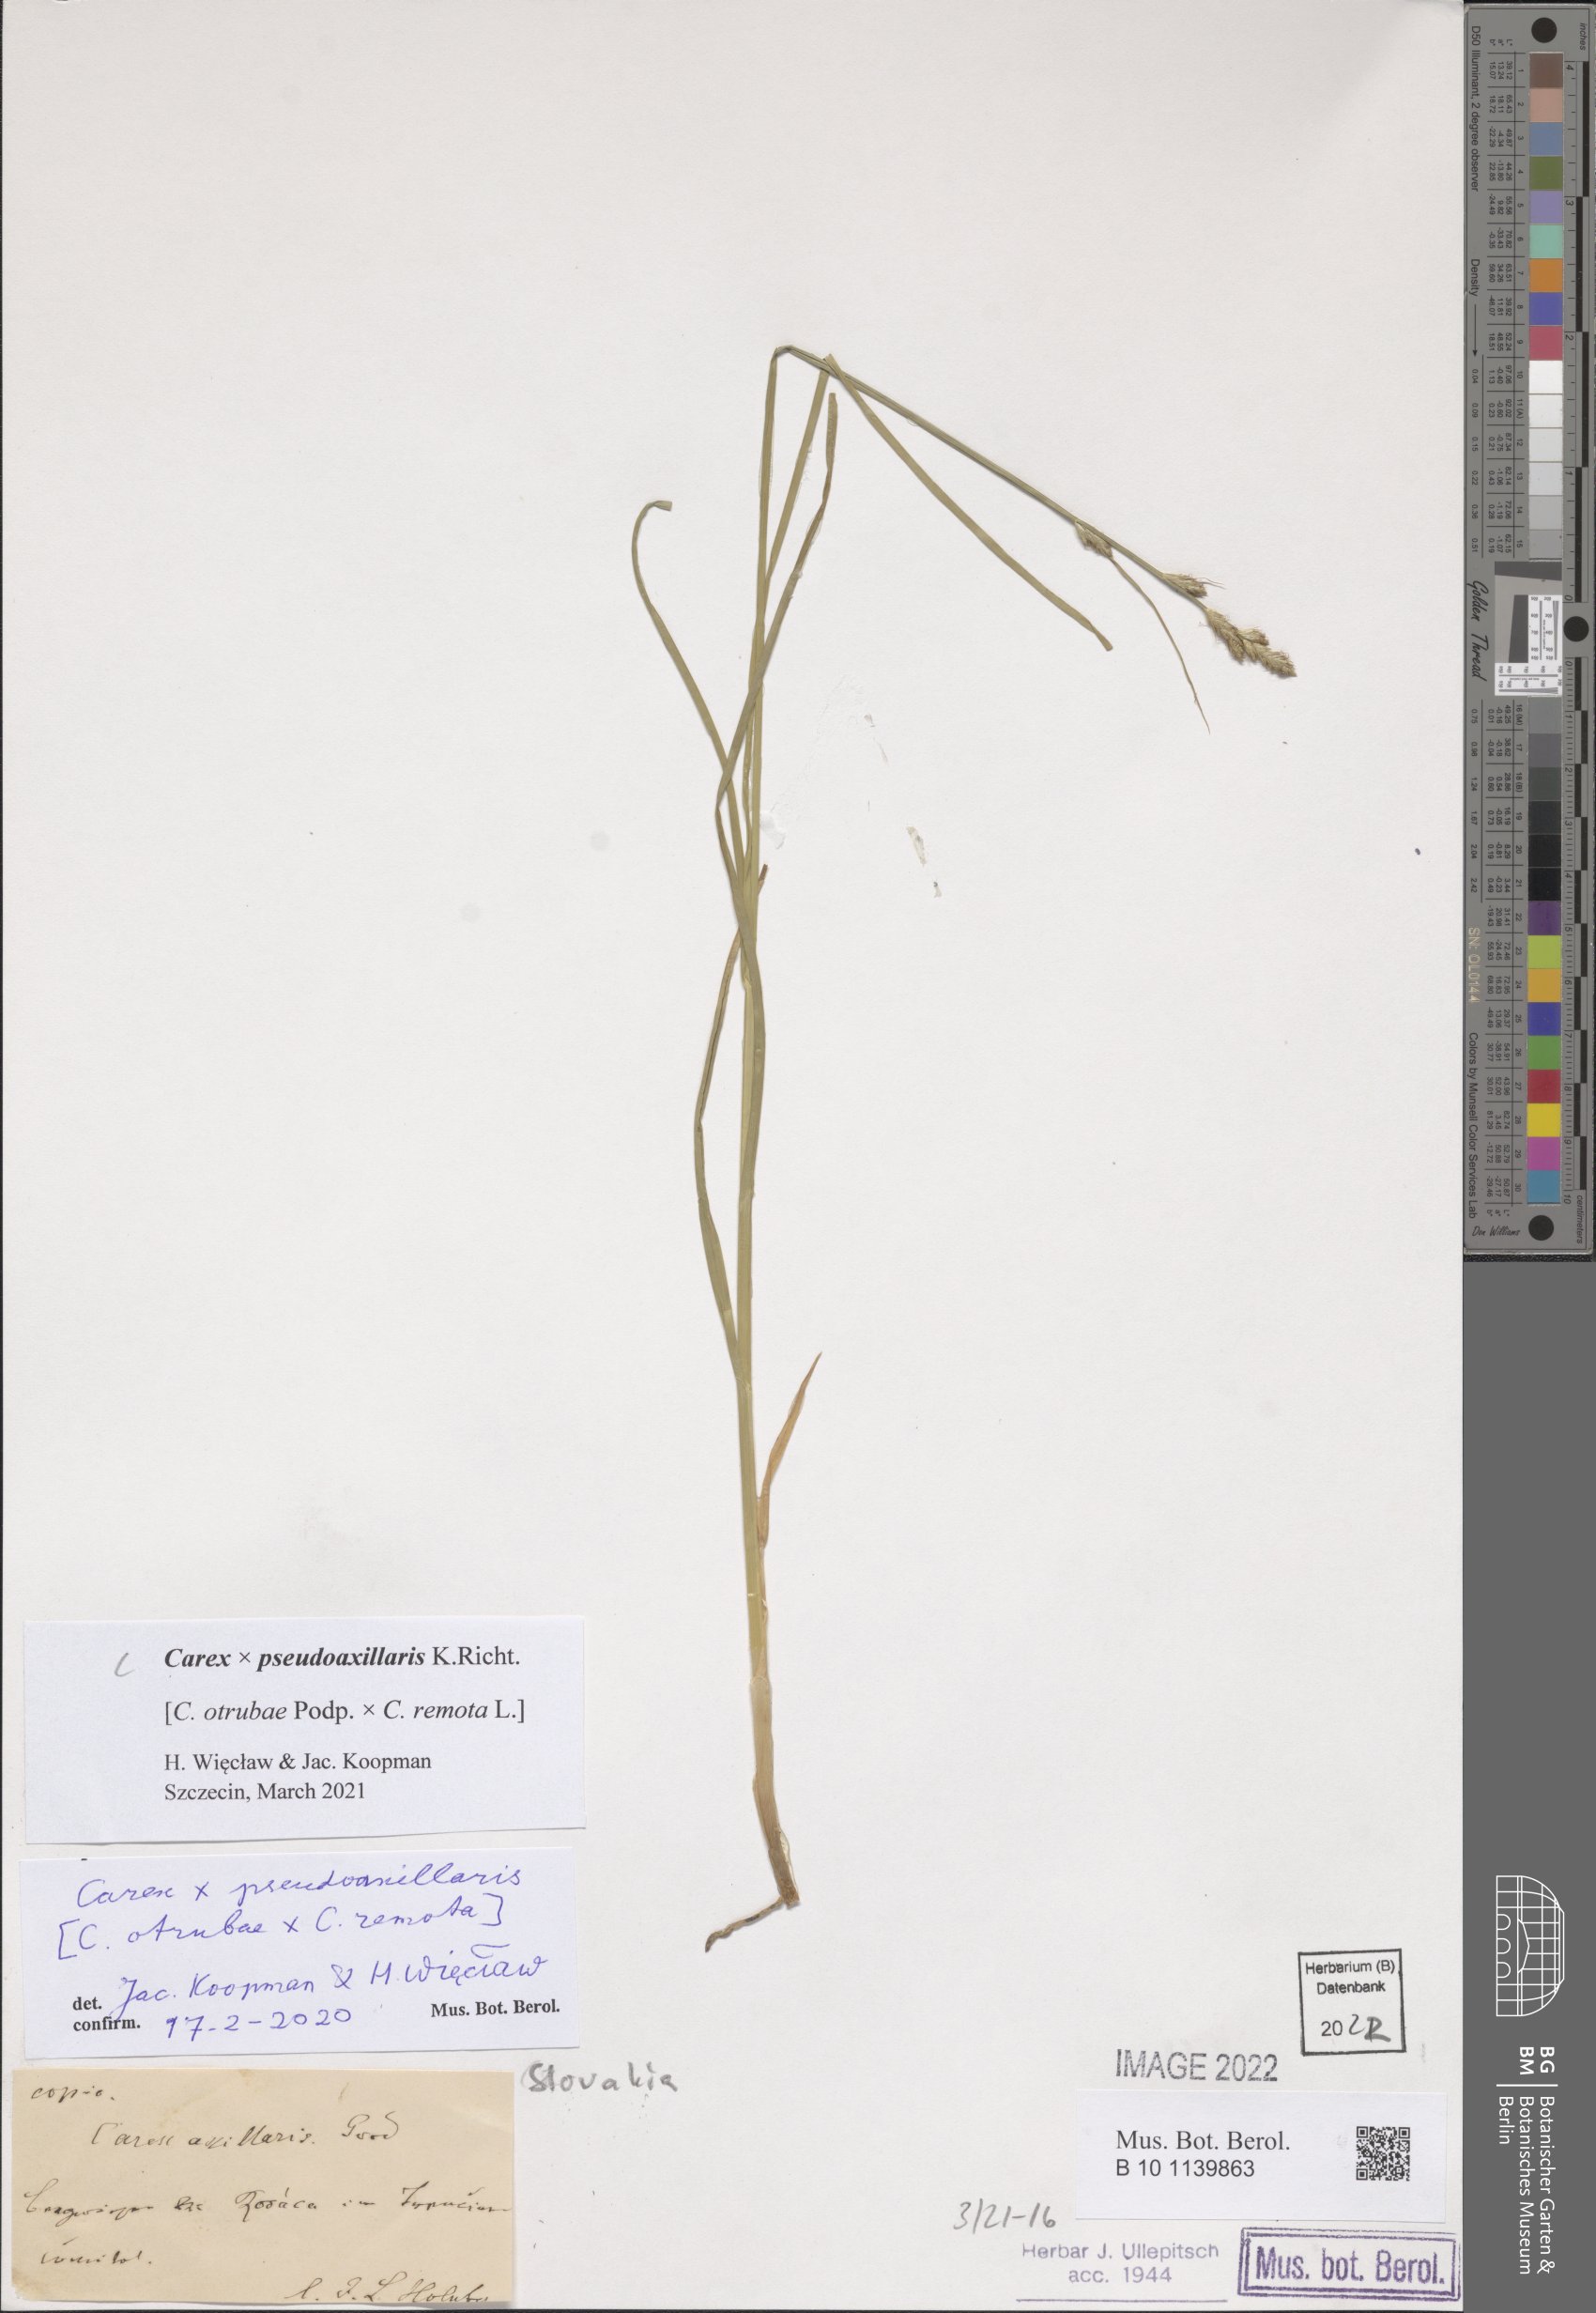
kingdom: Plantae
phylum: Tracheophyta
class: Liliopsida
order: Poales
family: Cyperaceae
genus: Carex
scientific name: Carex pseudoaxillaris
